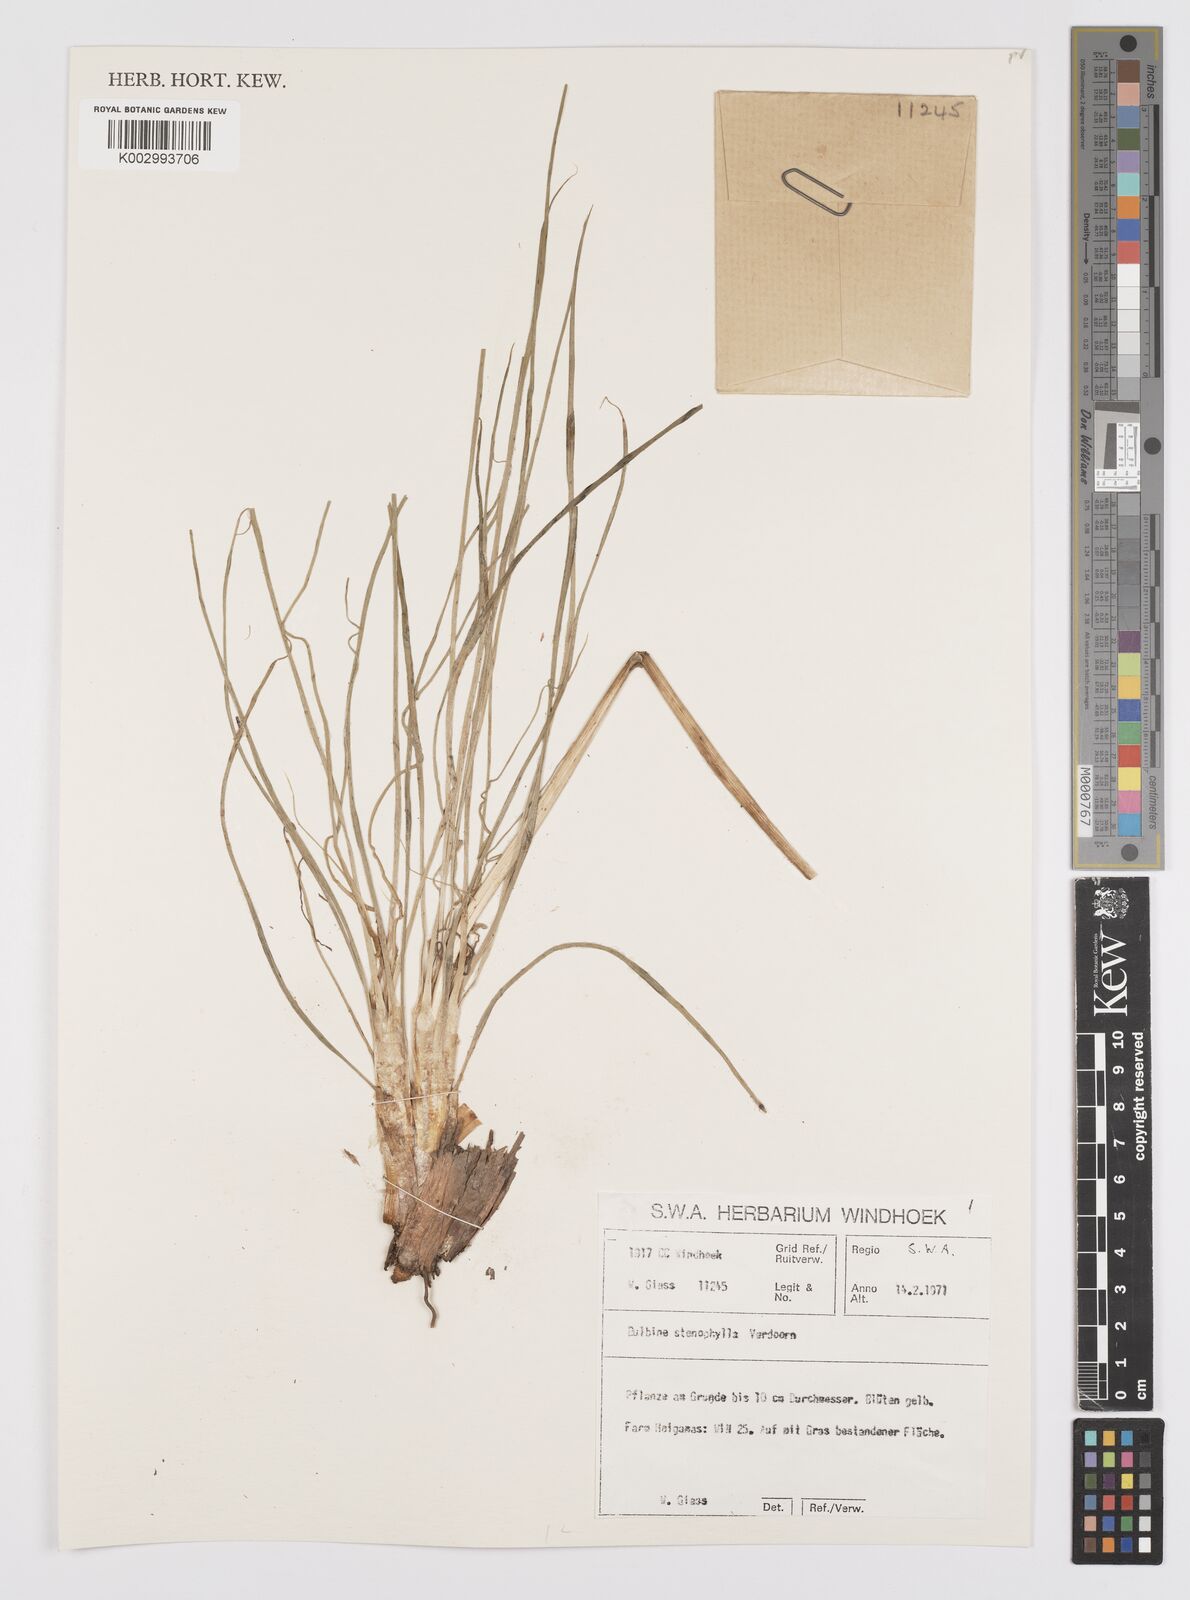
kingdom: Plantae
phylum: Tracheophyta
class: Liliopsida
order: Asparagales
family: Asphodelaceae
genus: Bulbine
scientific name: Bulbine capitata
